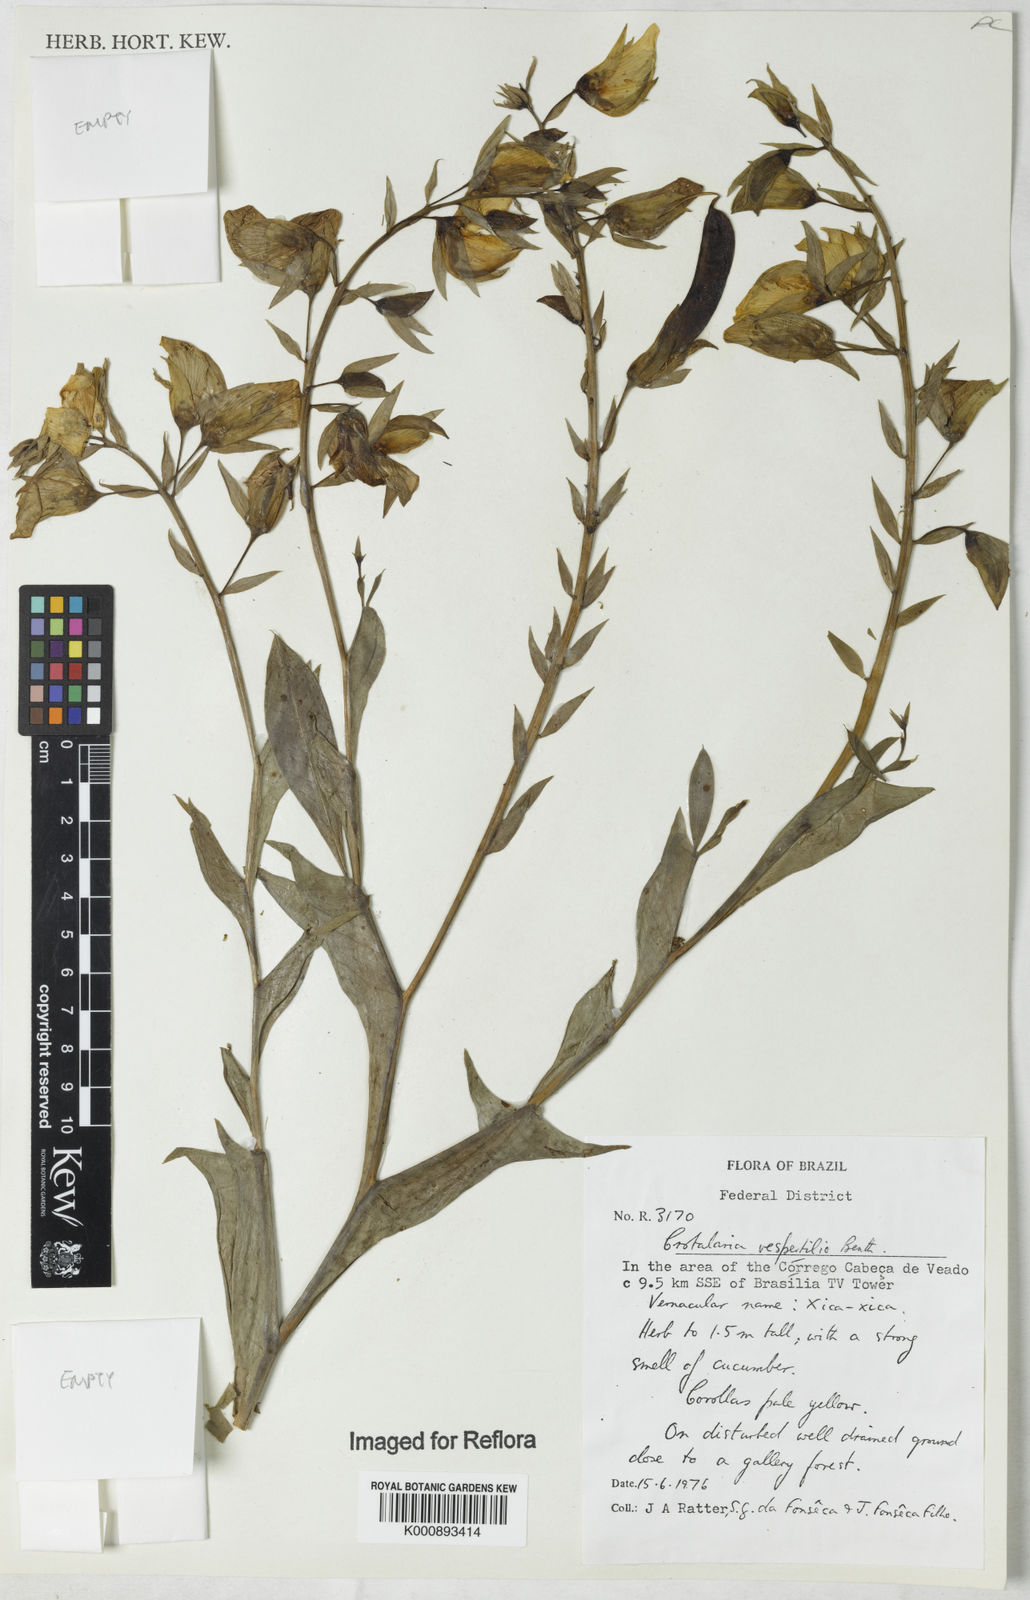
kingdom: Plantae
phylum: Tracheophyta
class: Magnoliopsida
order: Fabales
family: Fabaceae
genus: Crotalaria
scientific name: Crotalaria paulina
